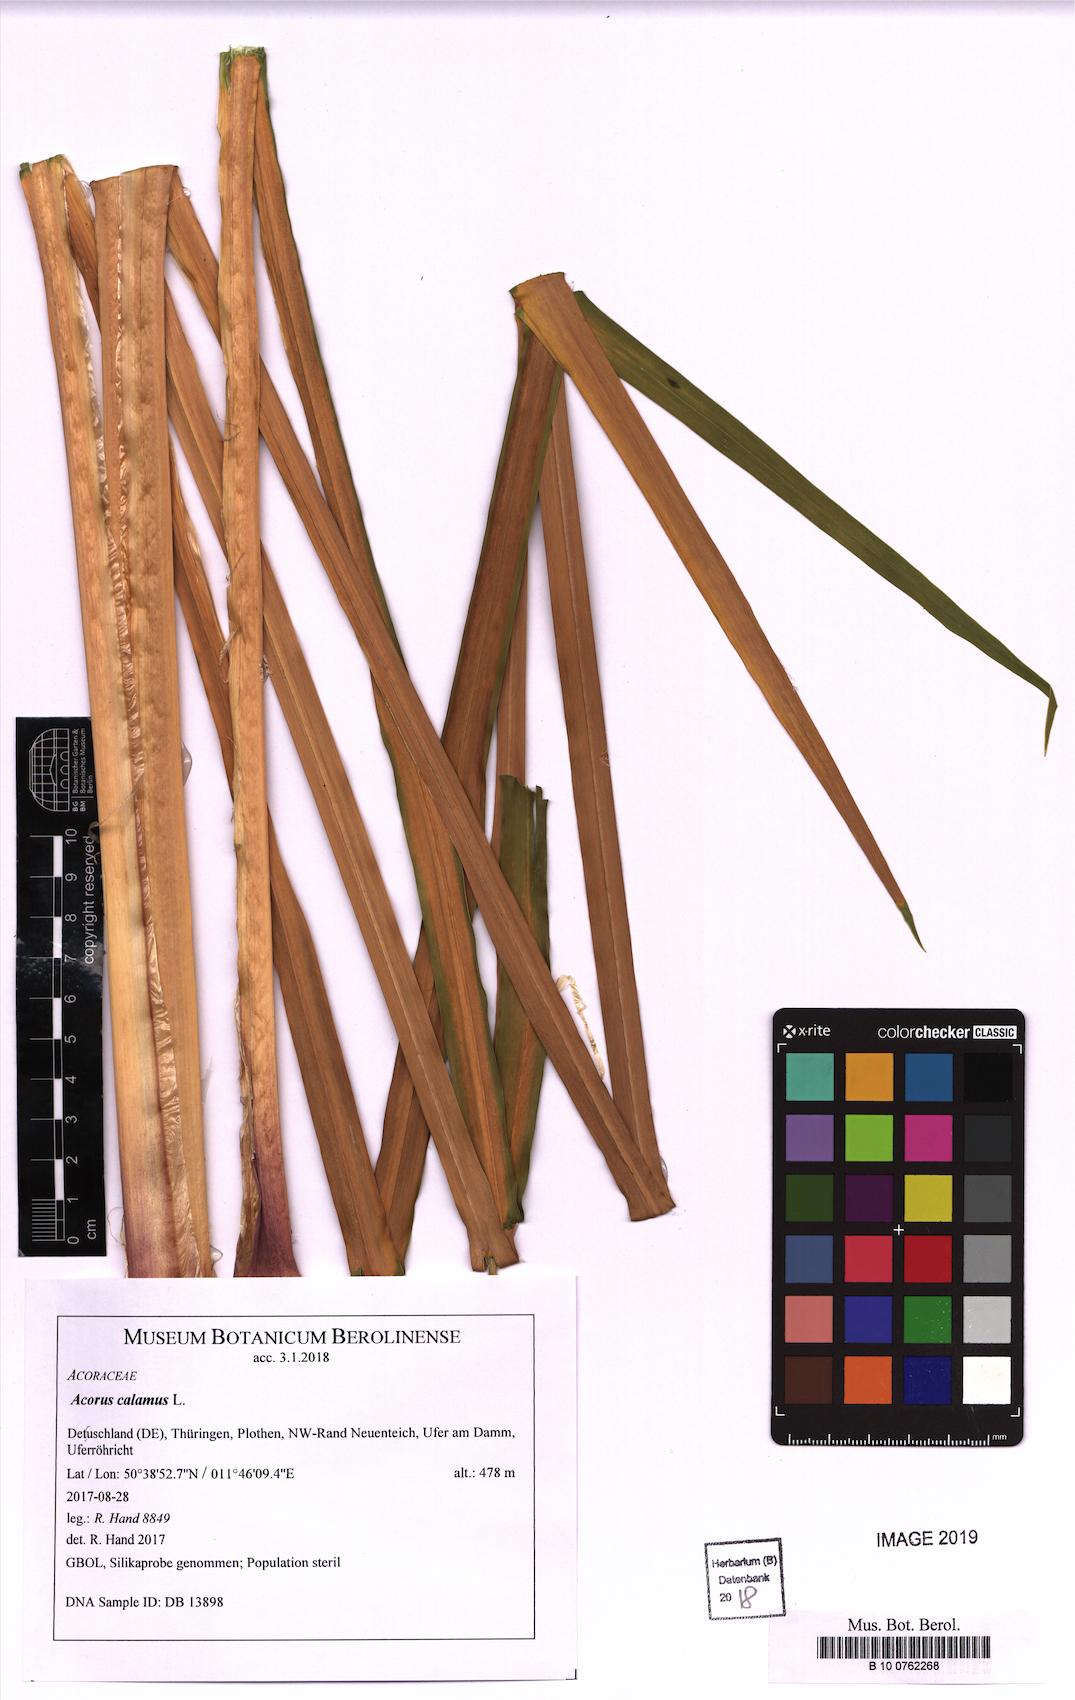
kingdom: Plantae
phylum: Tracheophyta
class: Liliopsida
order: Acorales
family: Acoraceae
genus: Acorus
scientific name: Acorus calamus
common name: Sweet-flag
